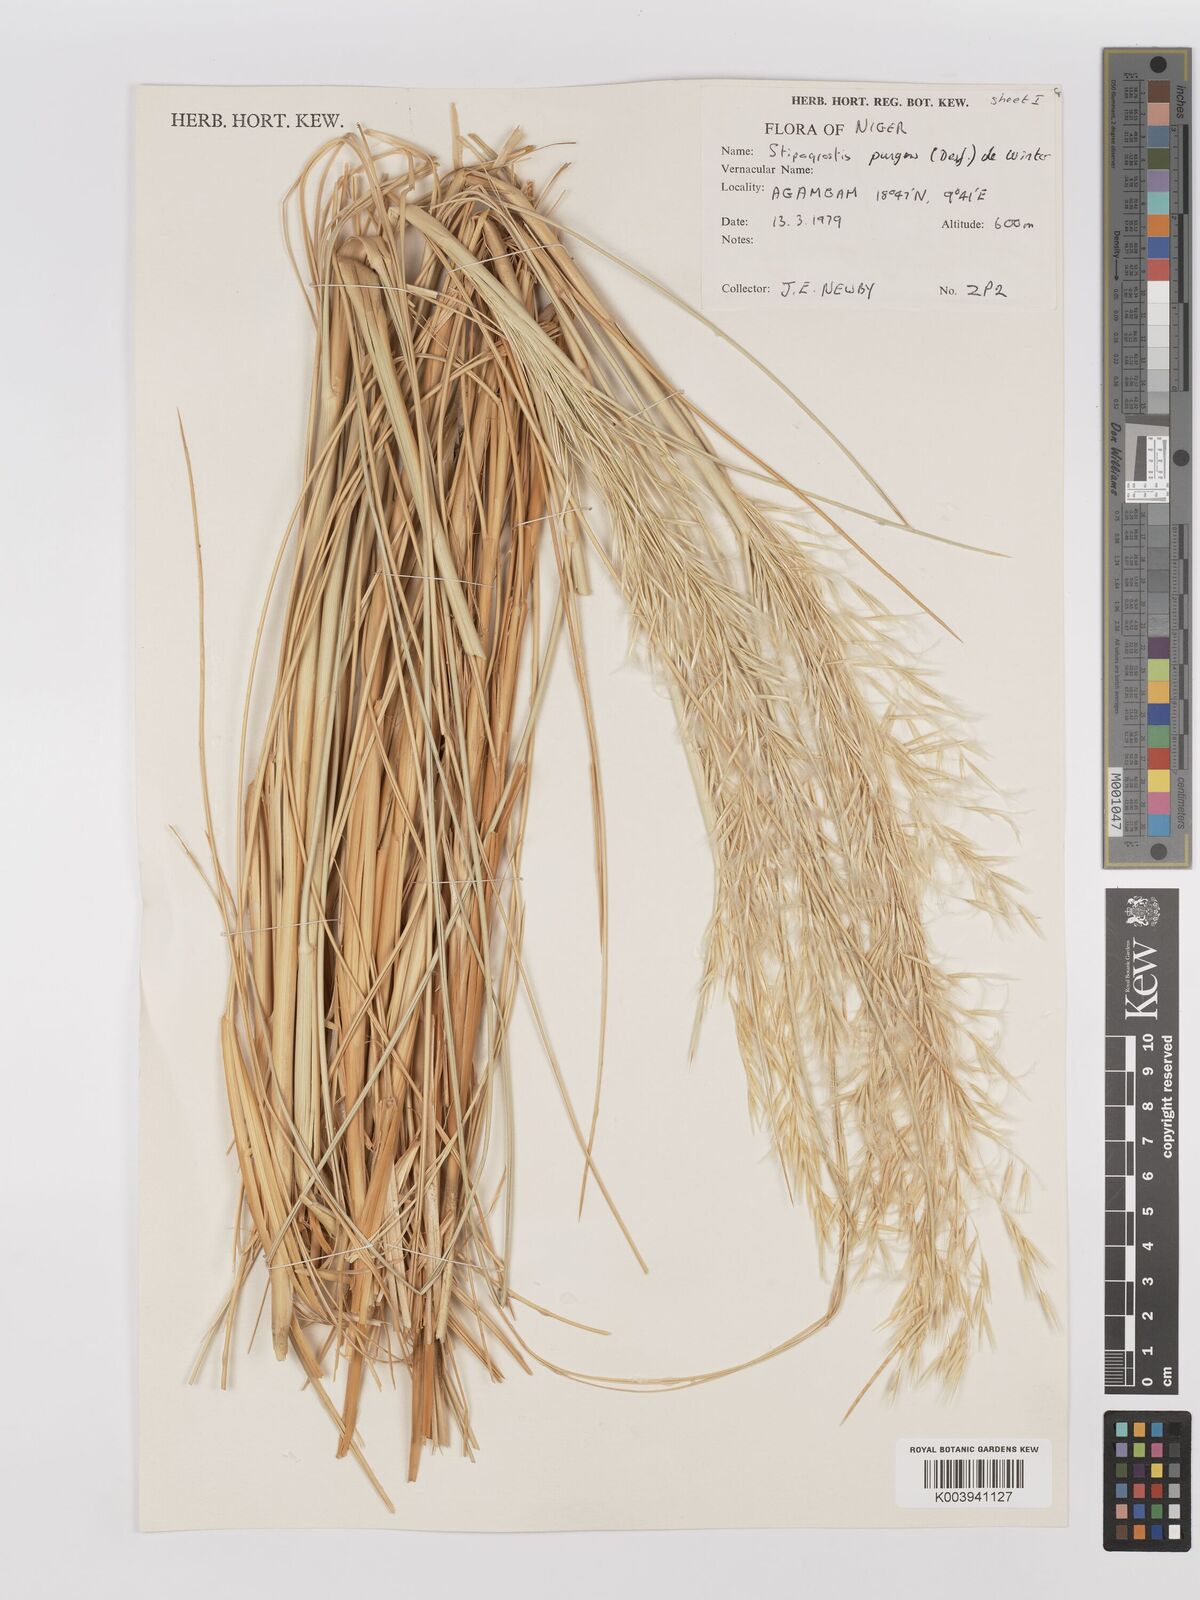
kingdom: Plantae
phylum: Tracheophyta
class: Liliopsida
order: Poales
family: Poaceae
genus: Stipagrostis
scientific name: Stipagrostis pungens
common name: Three-awn grass
